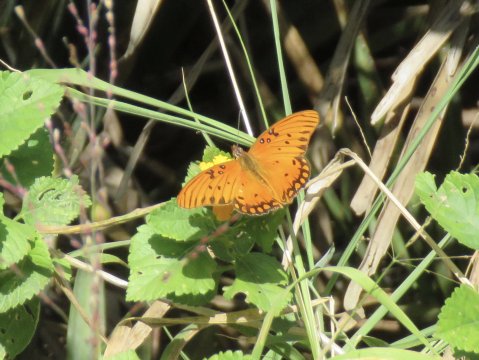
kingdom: Animalia
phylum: Arthropoda
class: Insecta
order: Lepidoptera
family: Nymphalidae
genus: Dione
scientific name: Dione vanillae
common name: Gulf Fritillary
